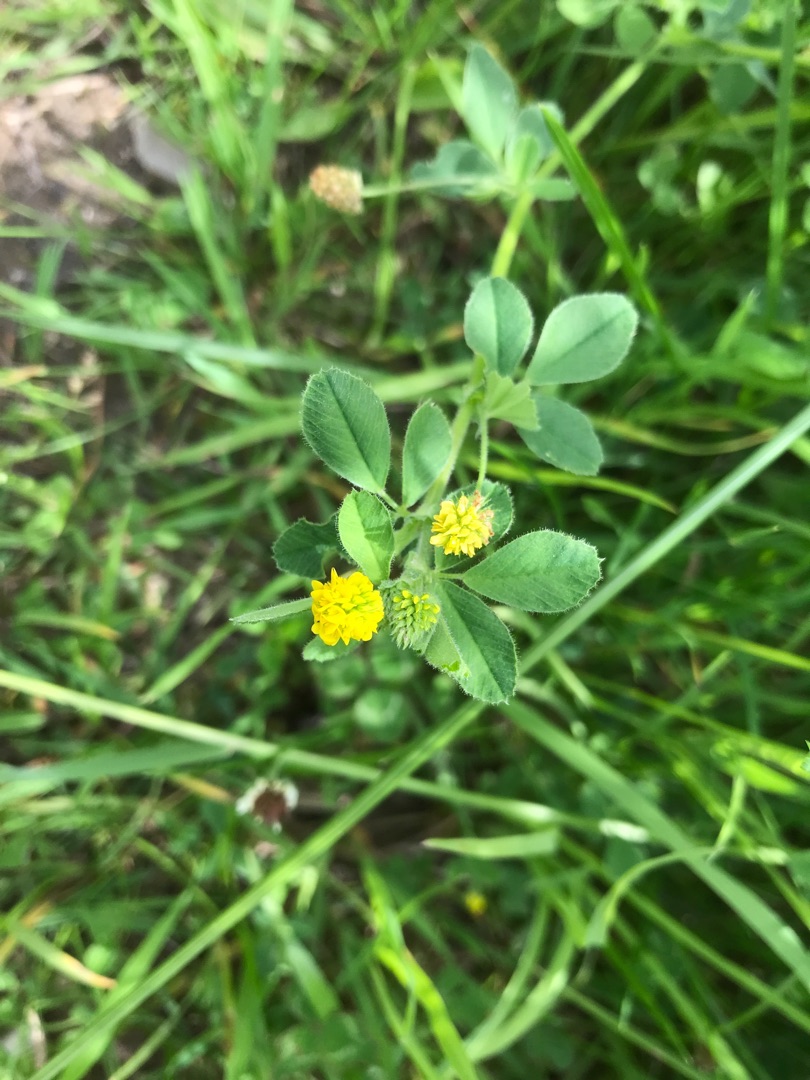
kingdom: Plantae
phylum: Tracheophyta
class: Magnoliopsida
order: Fabales
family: Fabaceae
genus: Medicago
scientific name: Medicago lupulina
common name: Humle-sneglebælg
